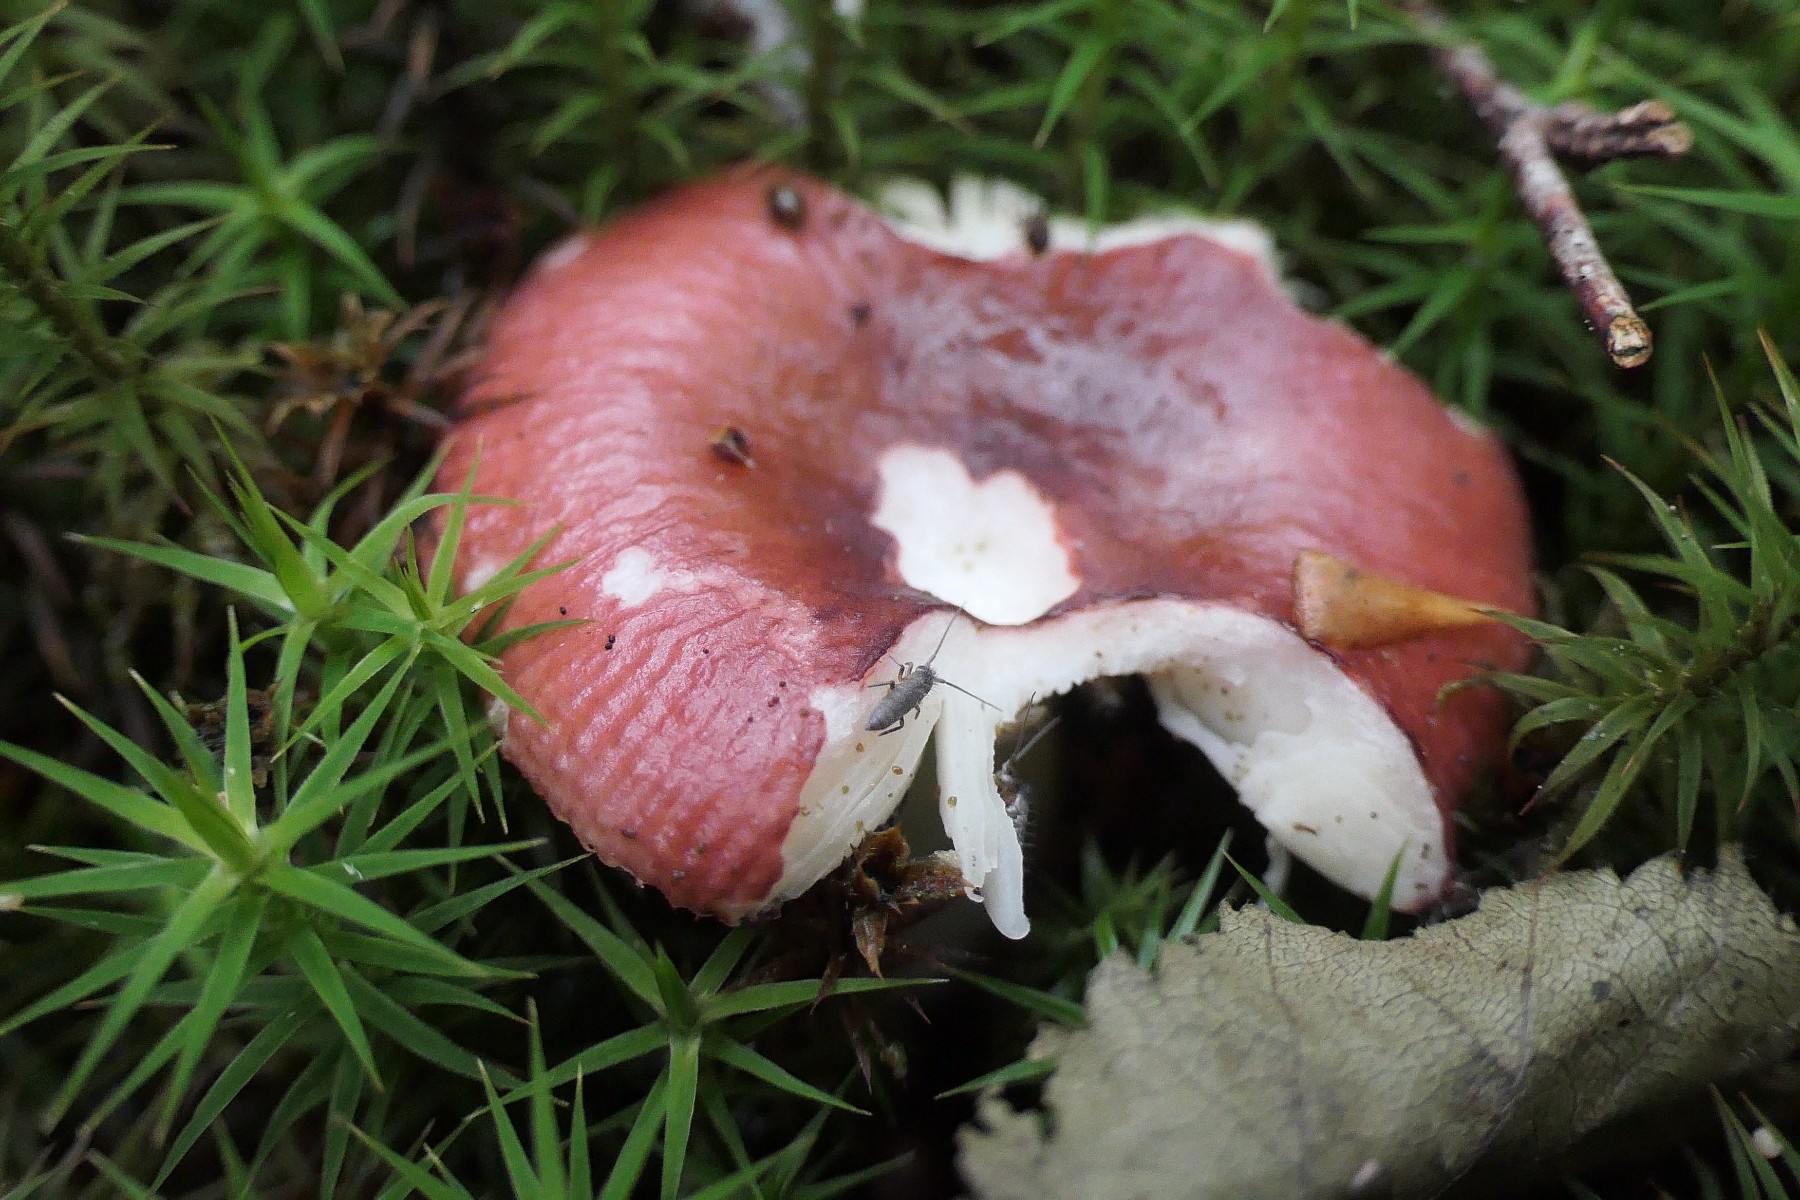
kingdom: Fungi
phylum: Basidiomycota
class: Agaricomycetes
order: Russulales
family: Russulaceae
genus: Russula
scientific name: Russula nitida
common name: året skørhat
